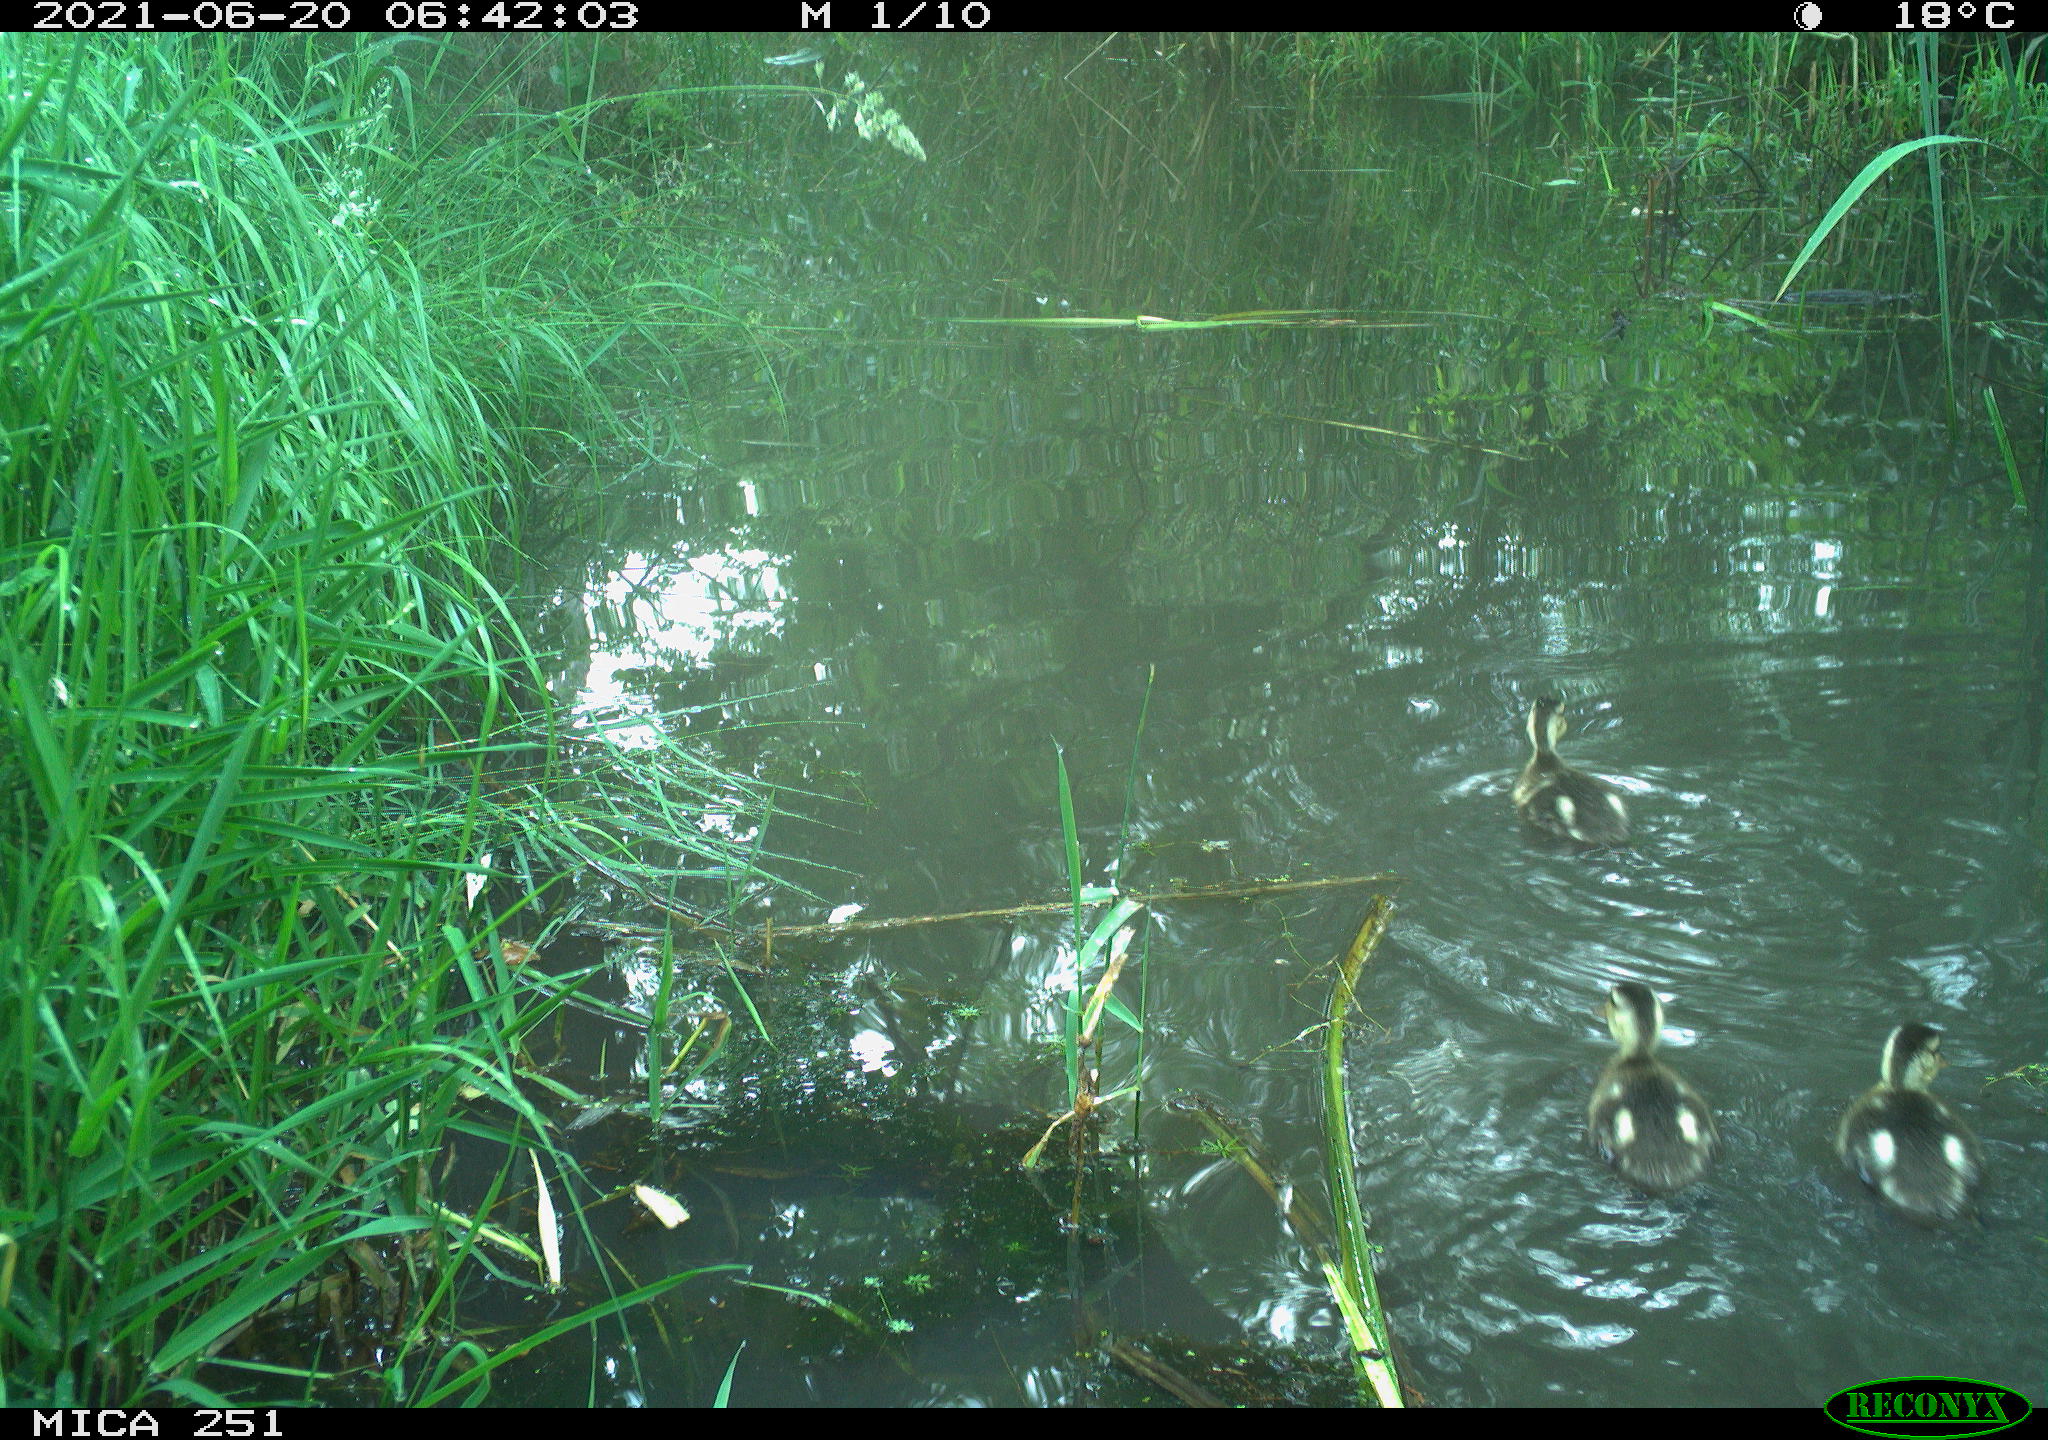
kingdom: Animalia
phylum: Chordata
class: Aves
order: Anseriformes
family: Anatidae
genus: Anas
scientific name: Anas platyrhynchos
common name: Mallard
